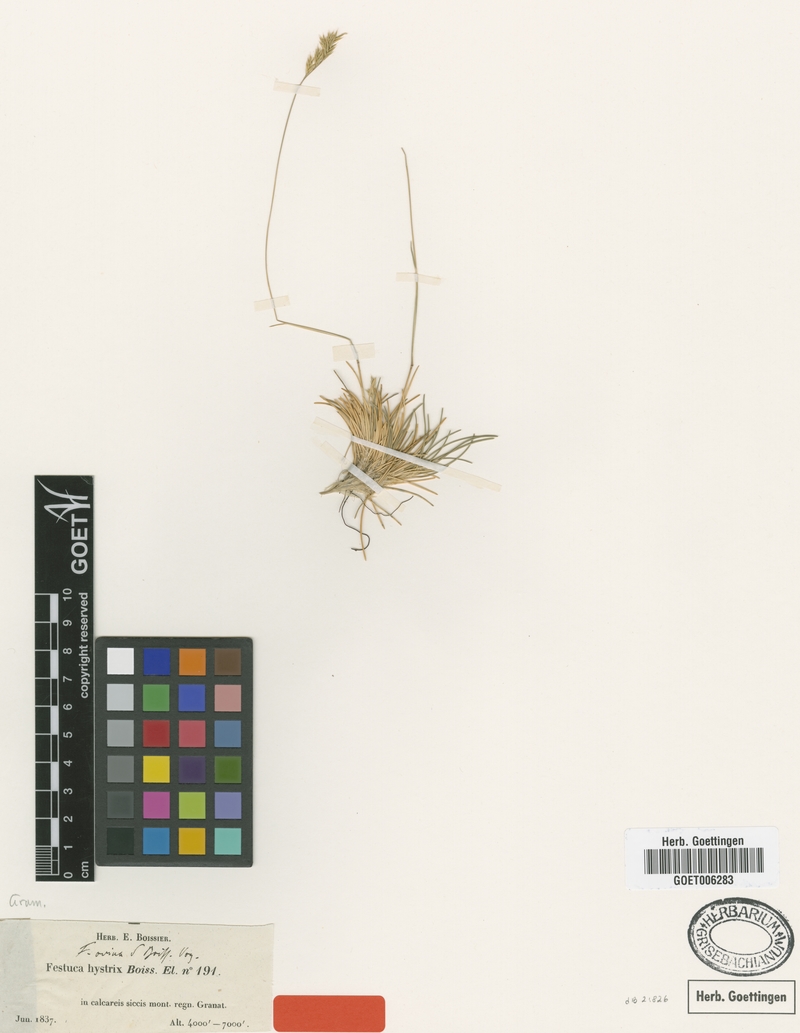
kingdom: Plantae
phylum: Tracheophyta
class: Liliopsida
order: Poales
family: Poaceae
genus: Festuca
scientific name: Festuca hystrix
